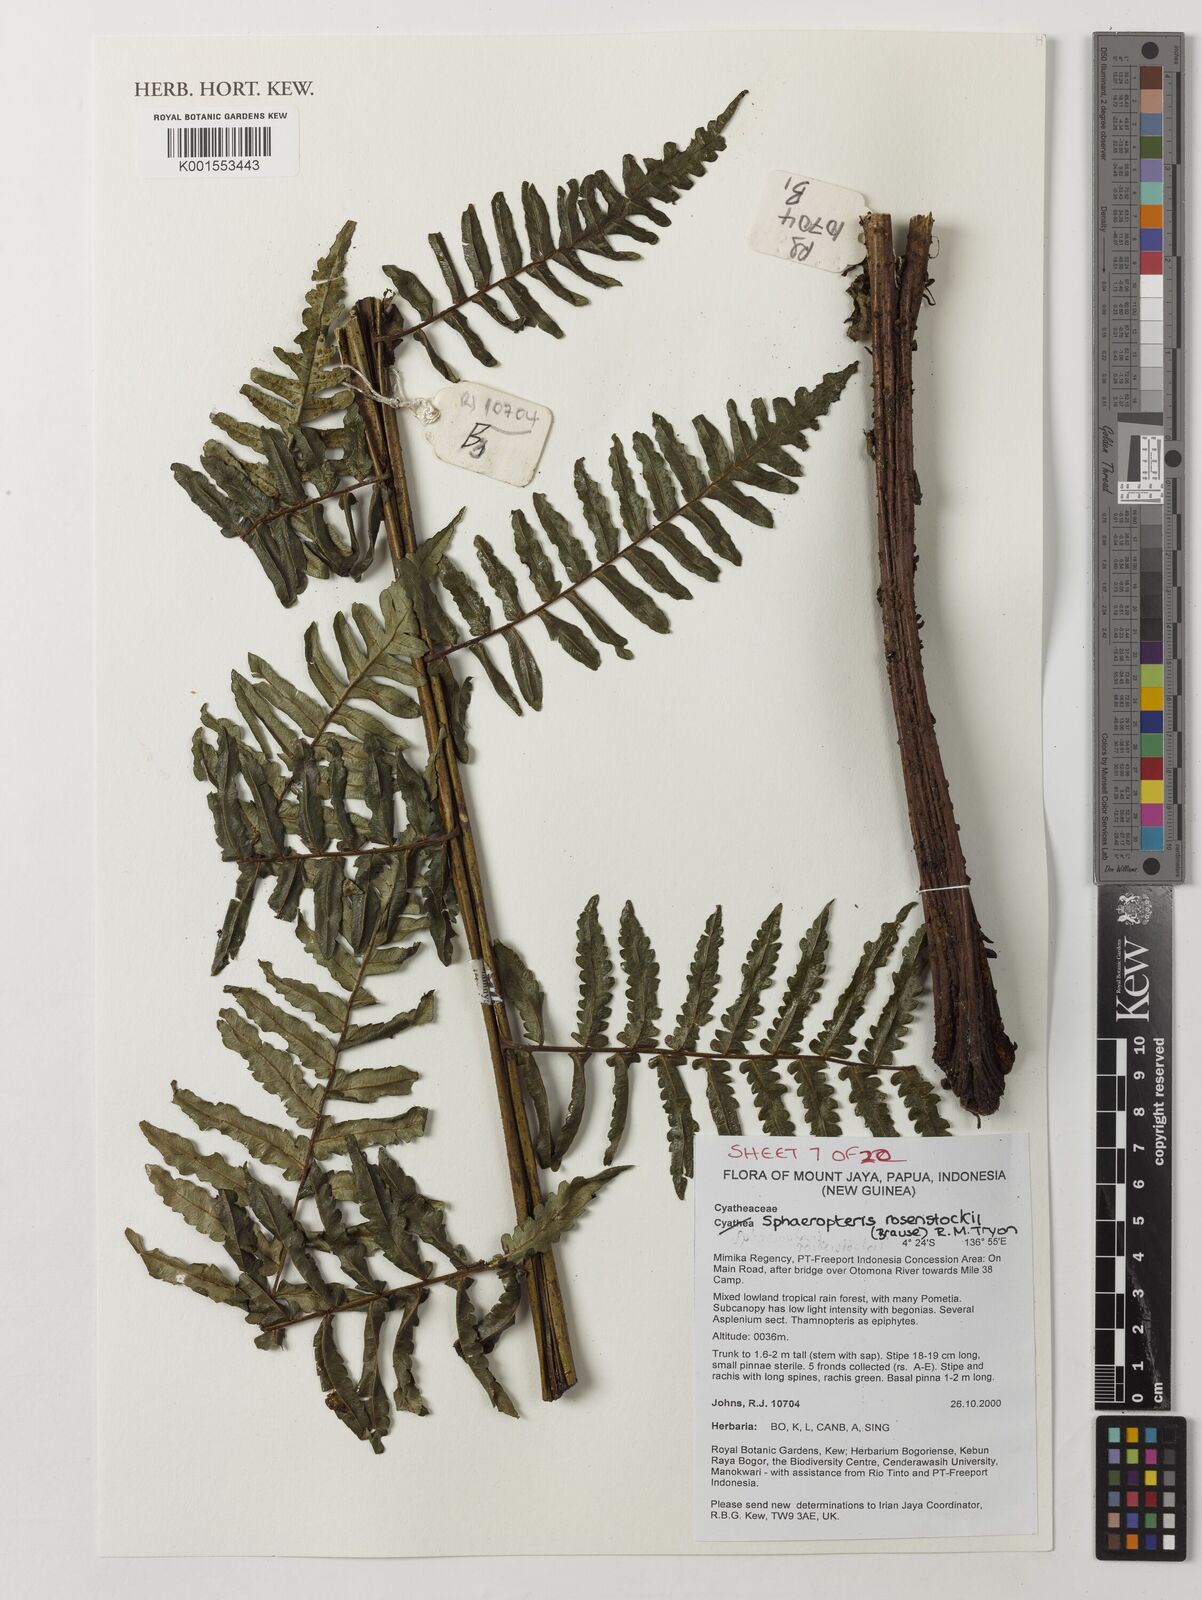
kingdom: Plantae
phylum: Tracheophyta
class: Polypodiopsida
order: Cyatheales
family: Cyatheaceae
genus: Sphaeropteris
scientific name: Sphaeropteris rosenstockii
